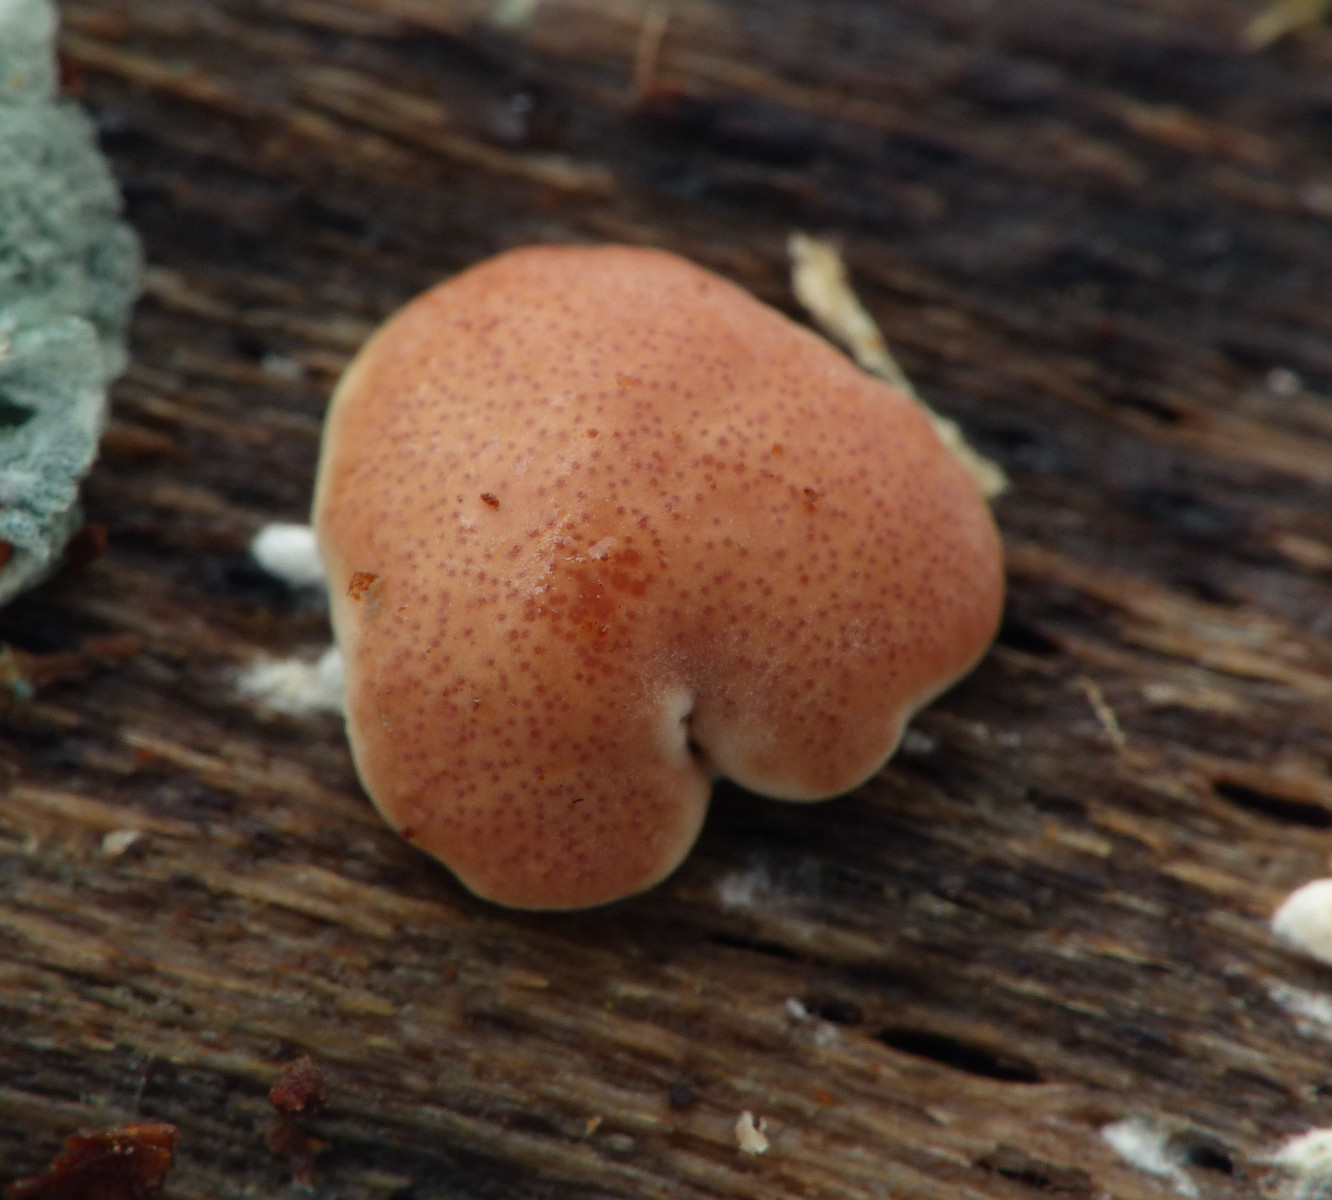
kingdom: Fungi
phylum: Ascomycota
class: Sordariomycetes
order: Hypocreales
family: Hypocreaceae
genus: Trichoderma
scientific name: Trichoderma europaeum
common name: rosabrun kødkerne
